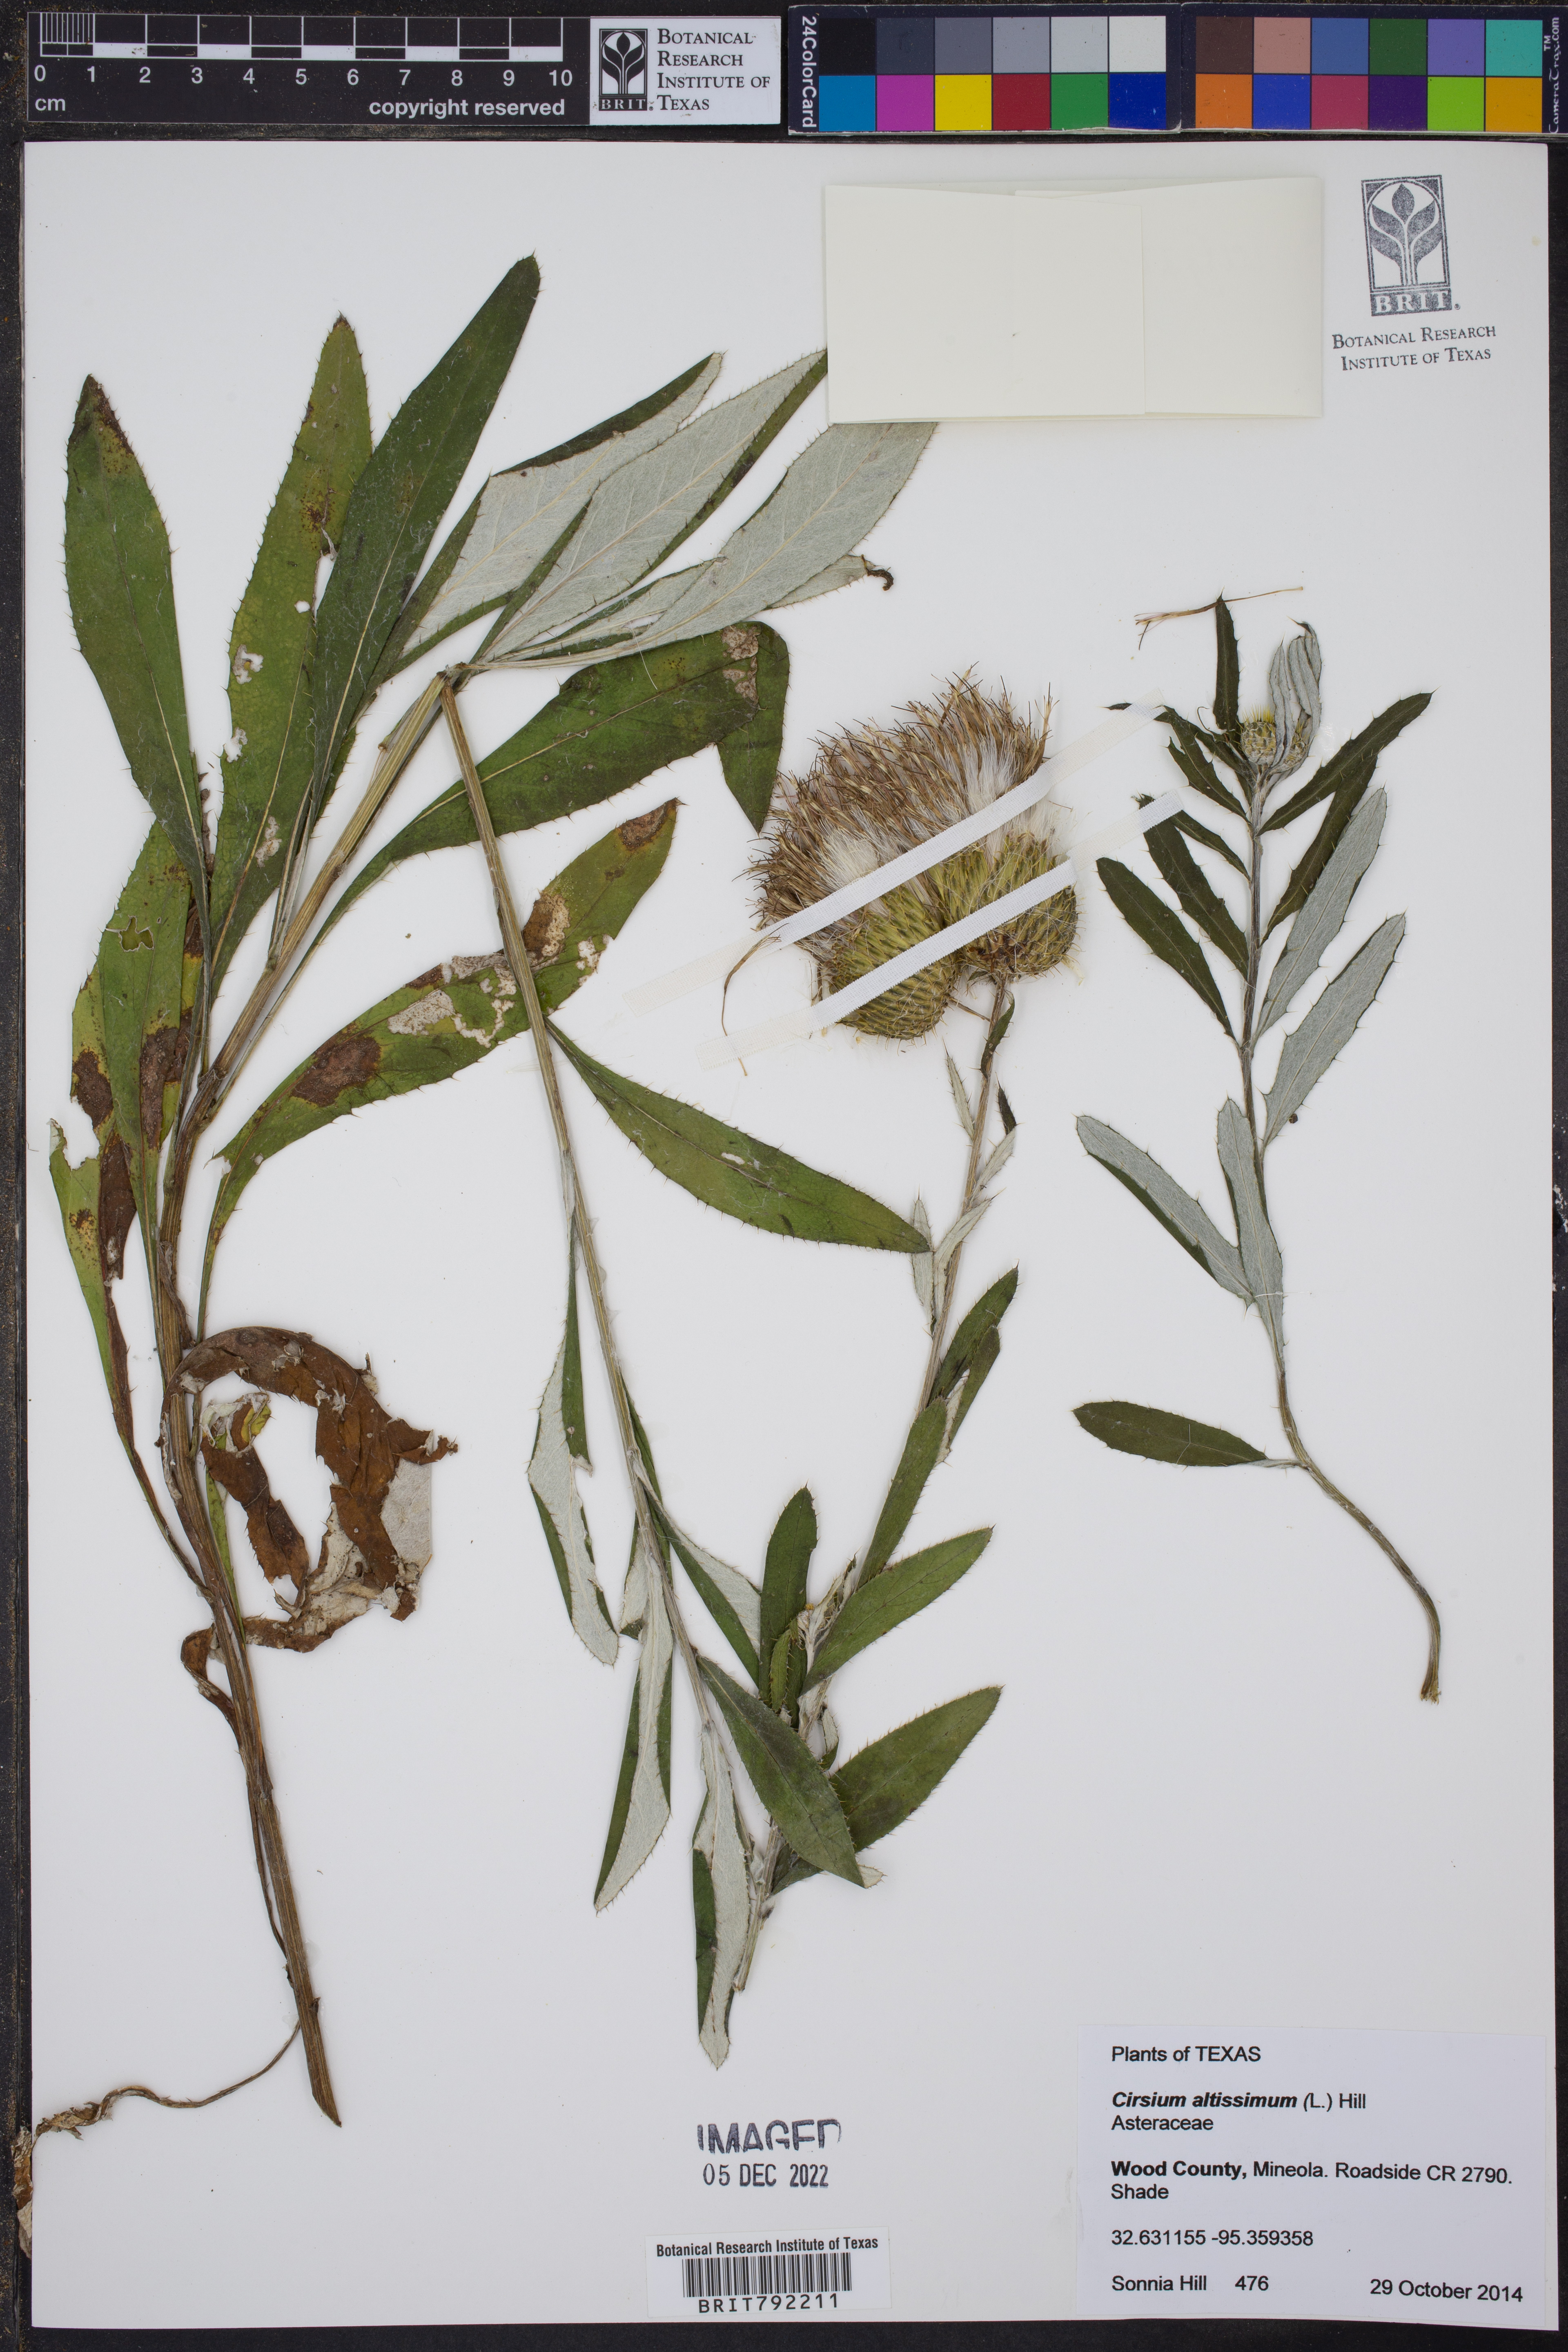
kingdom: Plantae
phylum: Tracheophyta
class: Magnoliopsida
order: Asterales
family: Asteraceae
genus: Cirsium
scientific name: Cirsium altissimum
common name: Roadside thistle
